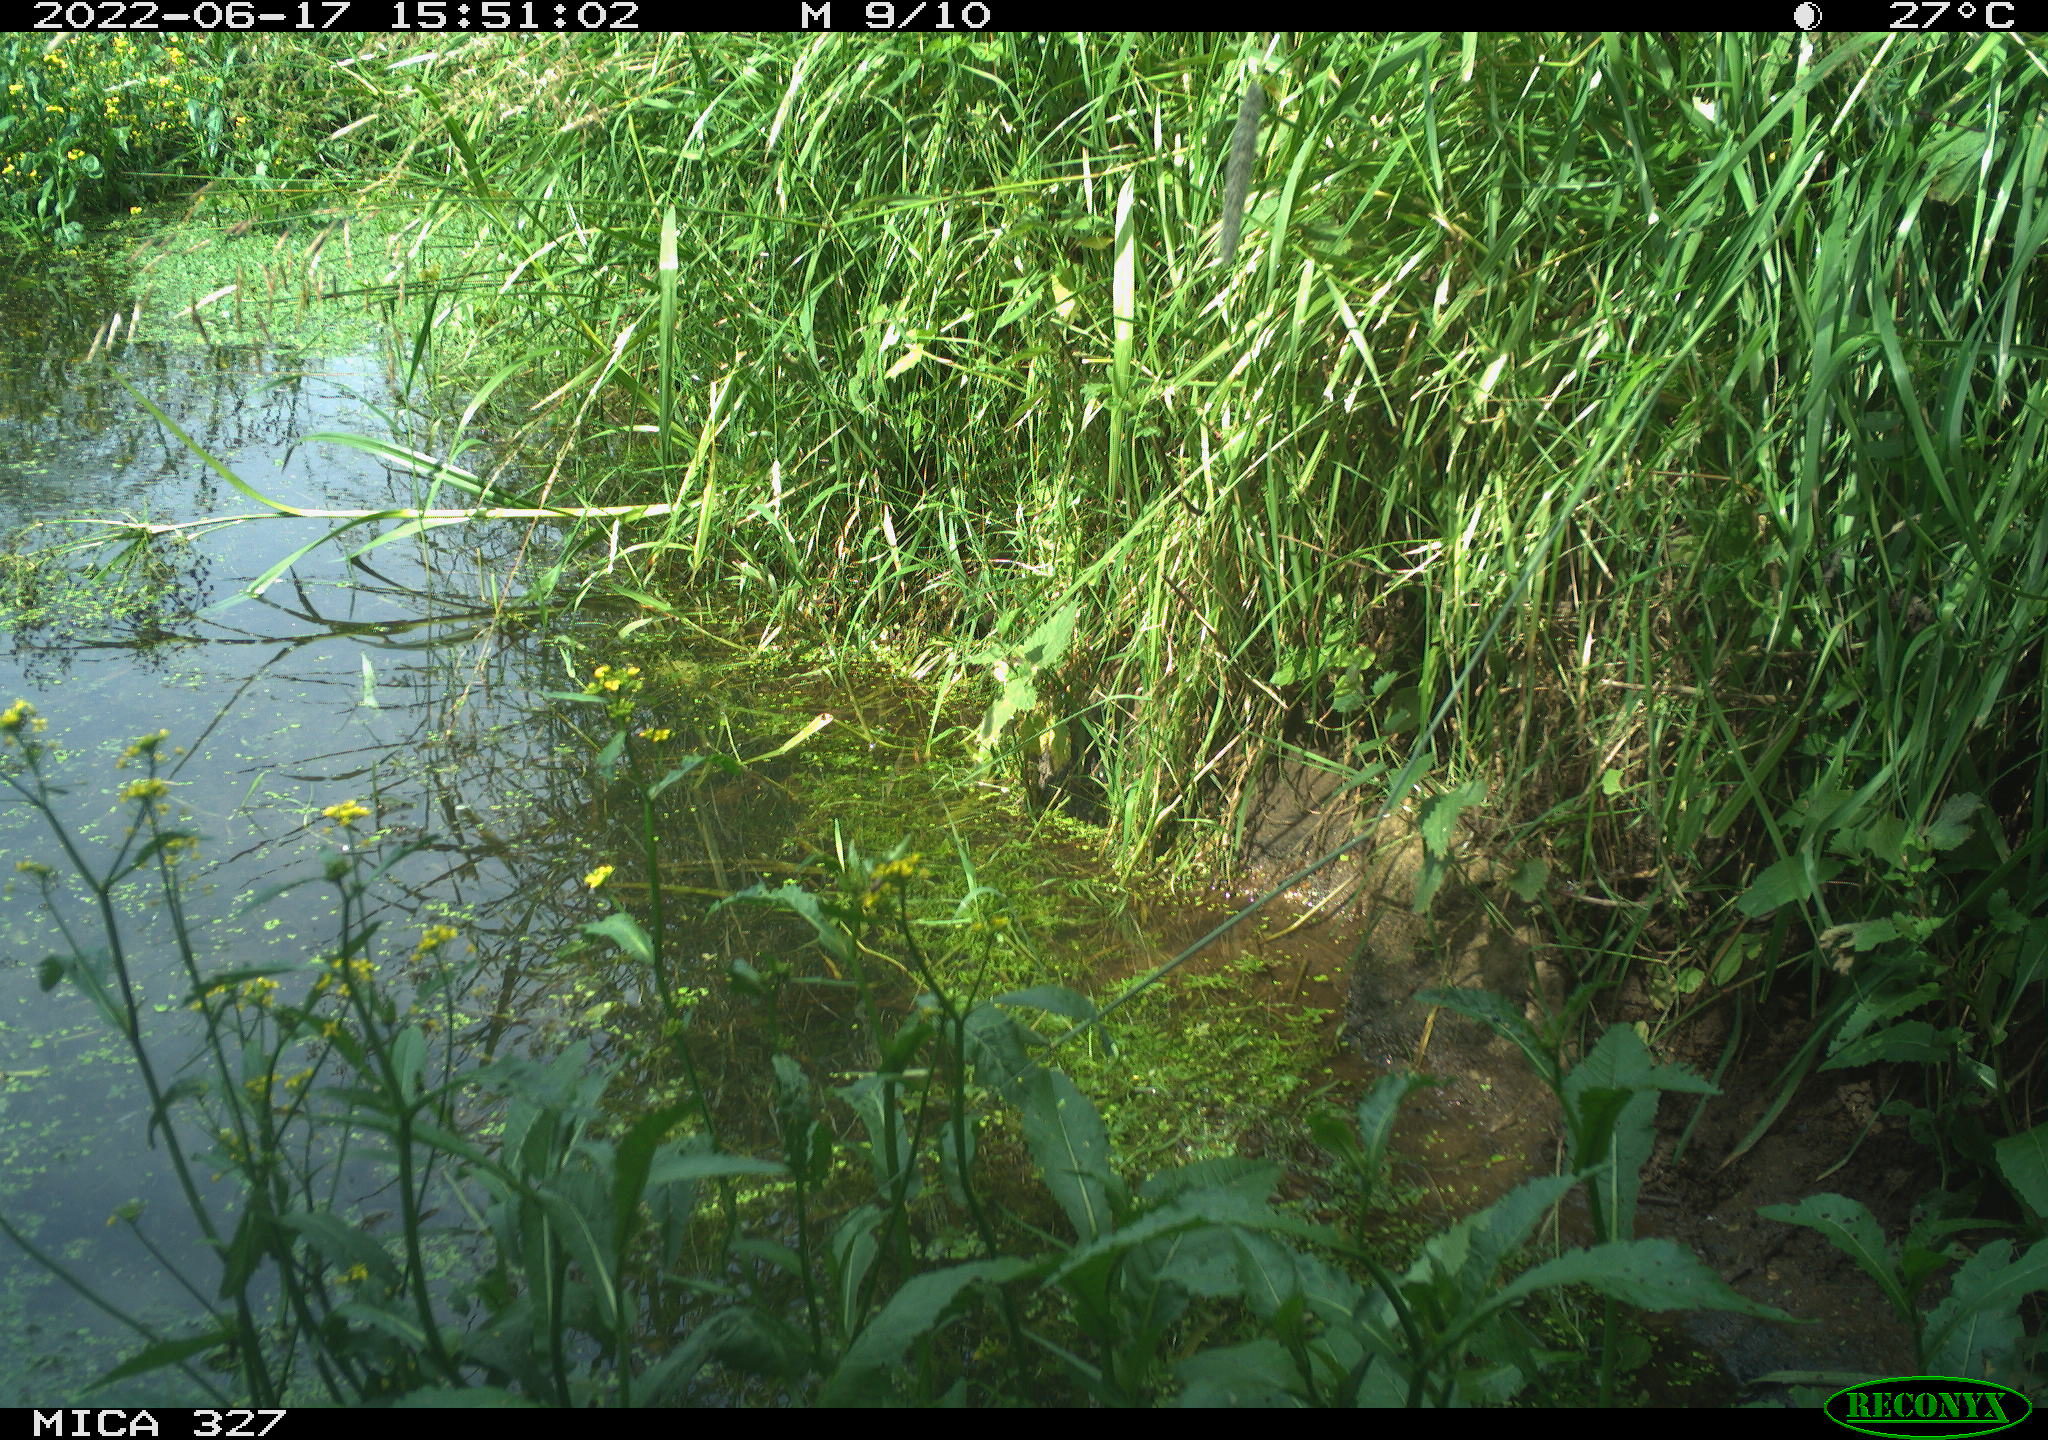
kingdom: Animalia
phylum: Chordata
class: Aves
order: Gruiformes
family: Rallidae
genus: Gallinula
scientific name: Gallinula chloropus
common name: Common moorhen
